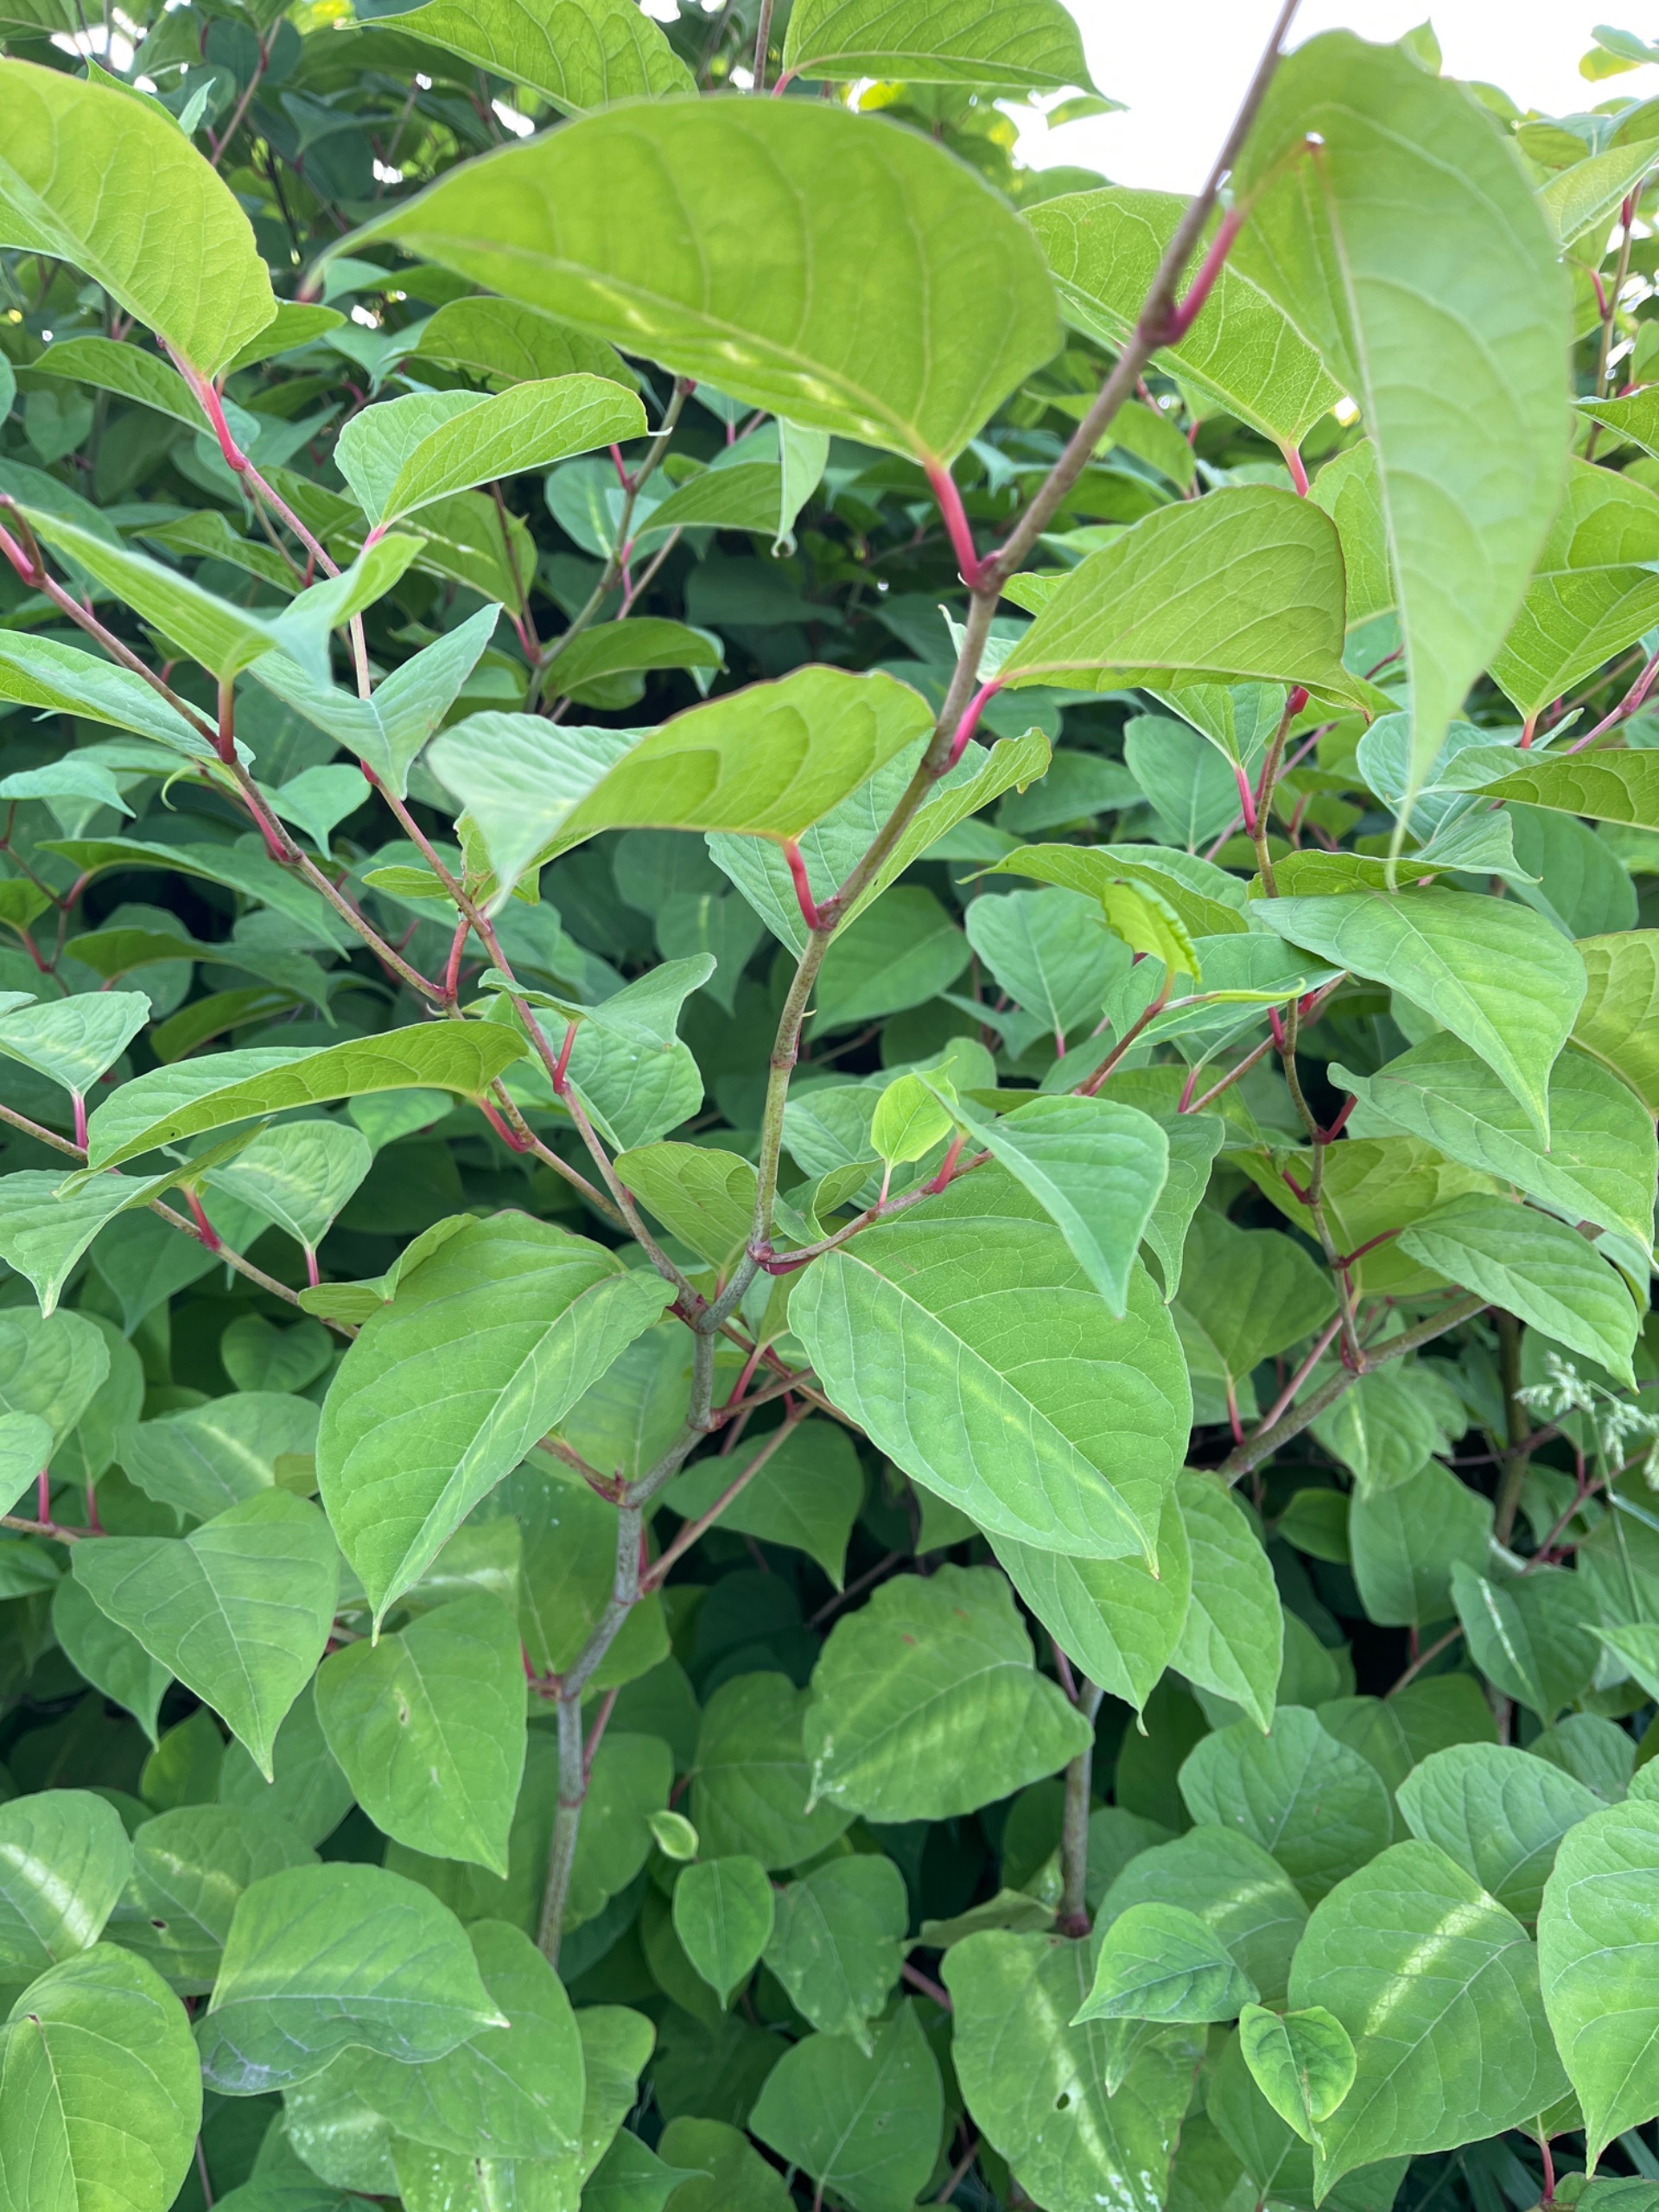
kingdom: Plantae
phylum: Tracheophyta
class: Magnoliopsida
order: Caryophyllales
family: Polygonaceae
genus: Reynoutria
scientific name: Reynoutria japonica
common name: Japan-pileurt
